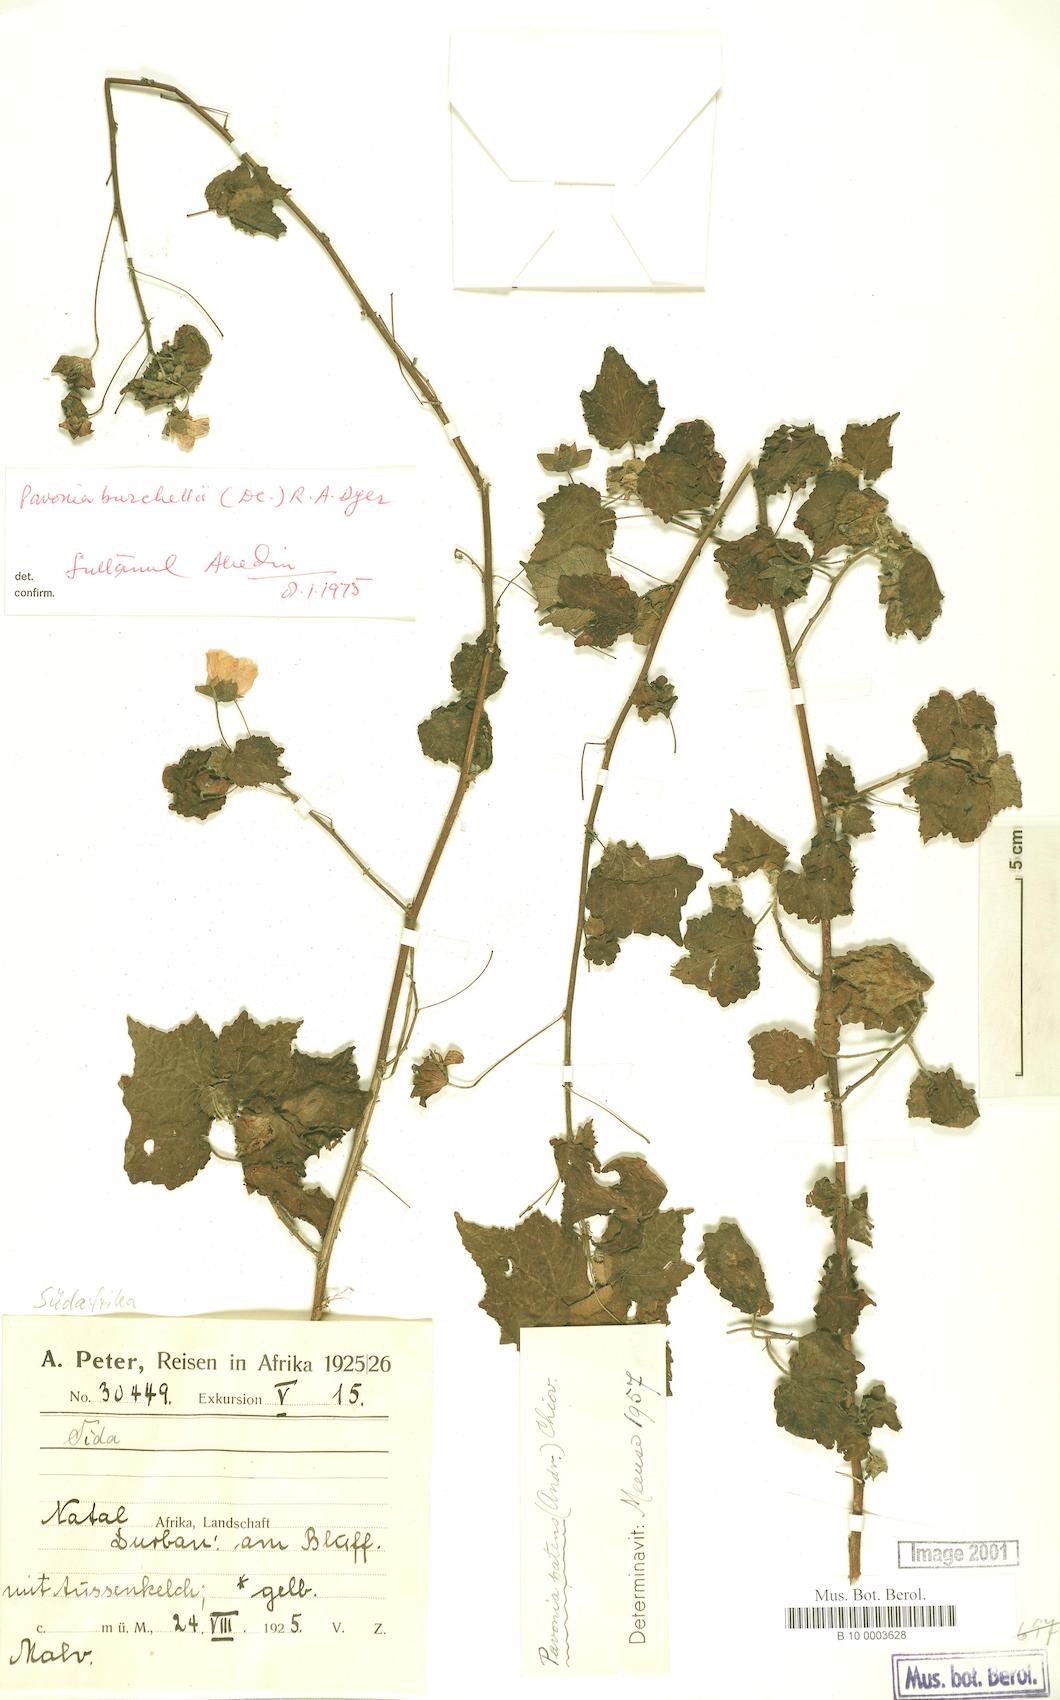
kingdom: Plantae
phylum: Tracheophyta
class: Magnoliopsida
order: Malvales
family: Malvaceae
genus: Pavonia
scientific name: Pavonia burchellii
